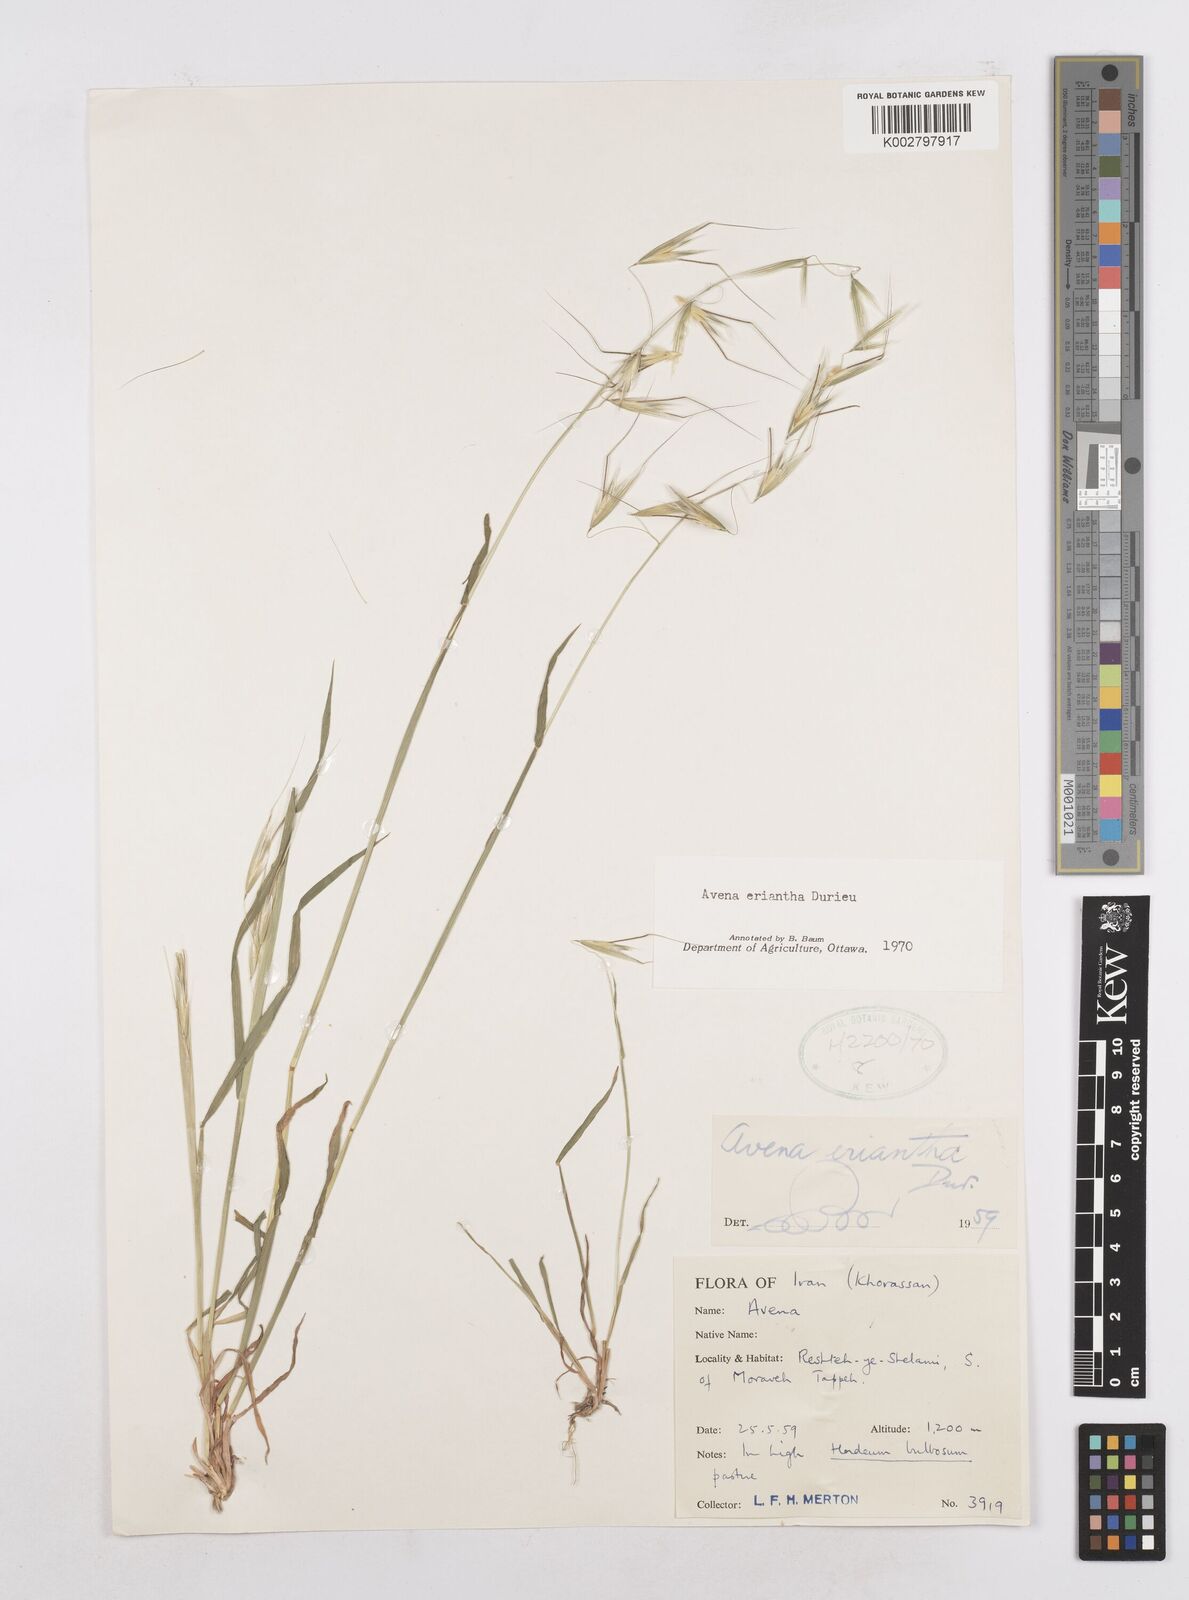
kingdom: Plantae
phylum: Tracheophyta
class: Liliopsida
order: Poales
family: Poaceae
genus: Avena
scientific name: Avena eriantha
